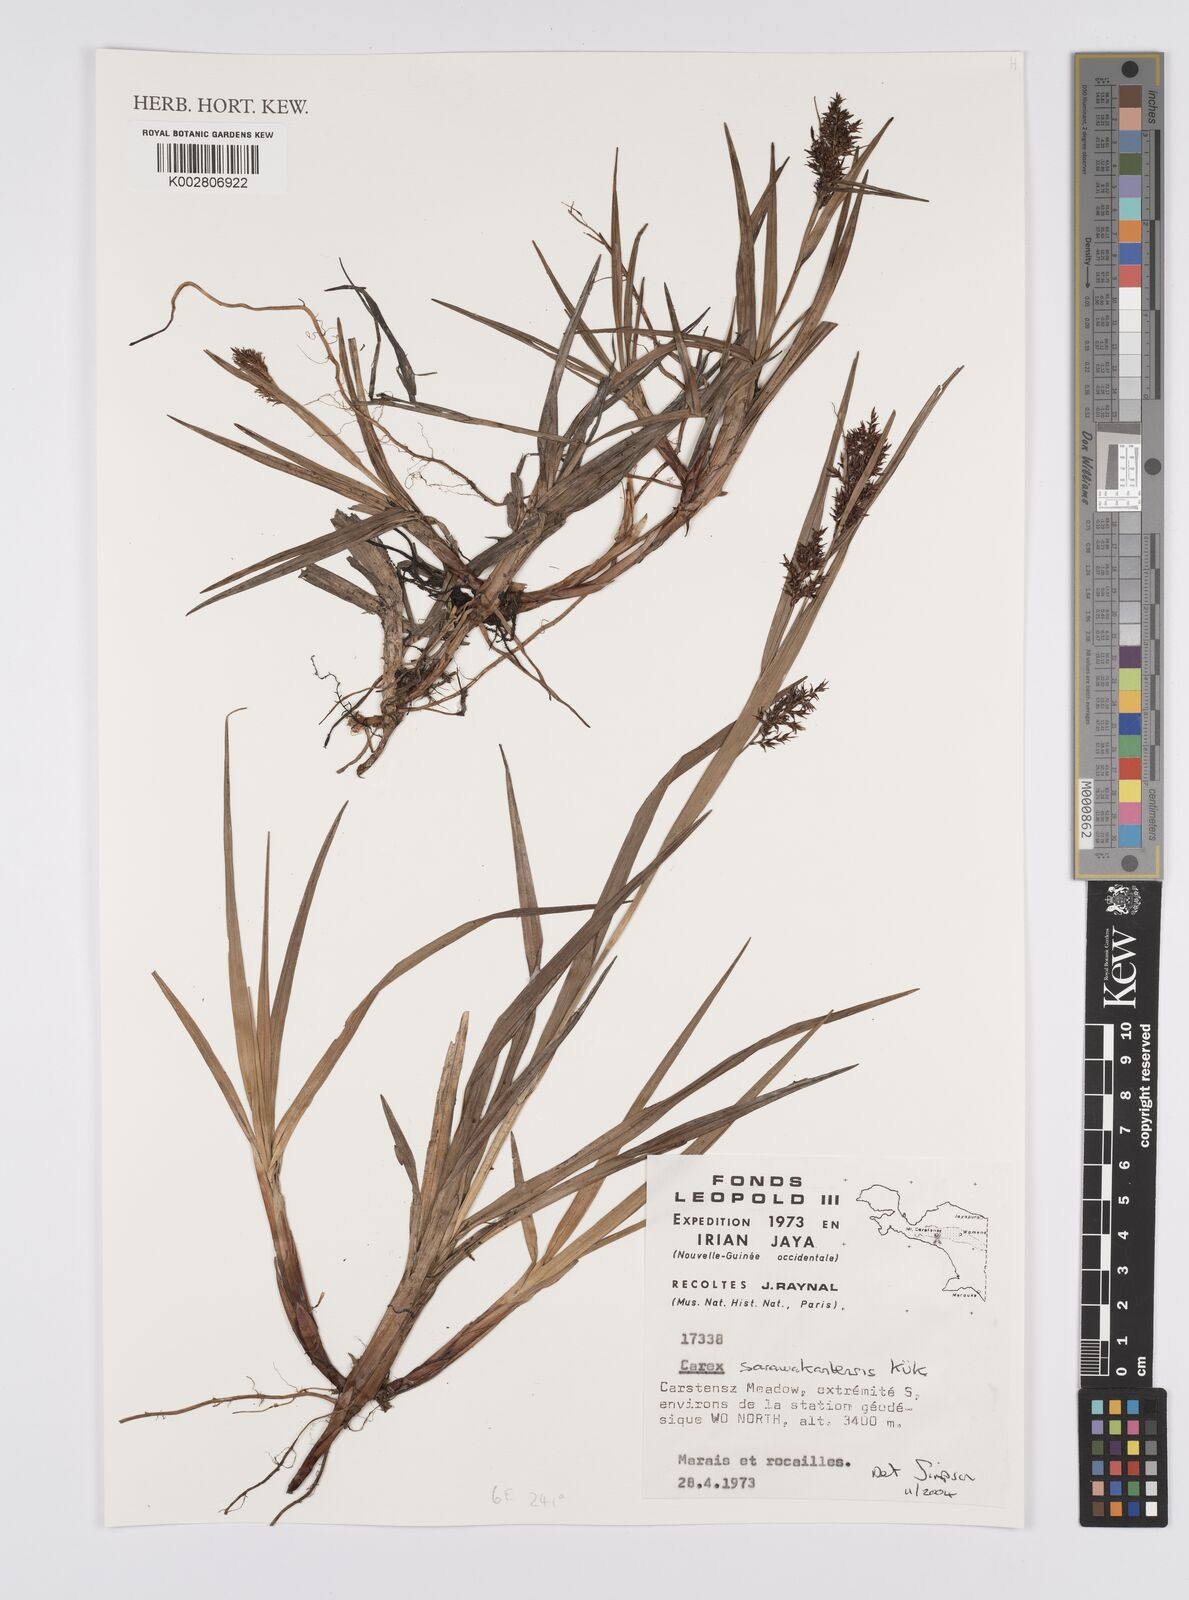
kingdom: Plantae
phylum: Tracheophyta
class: Liliopsida
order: Poales
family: Cyperaceae
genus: Carex
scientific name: Carex sarawaketensis
